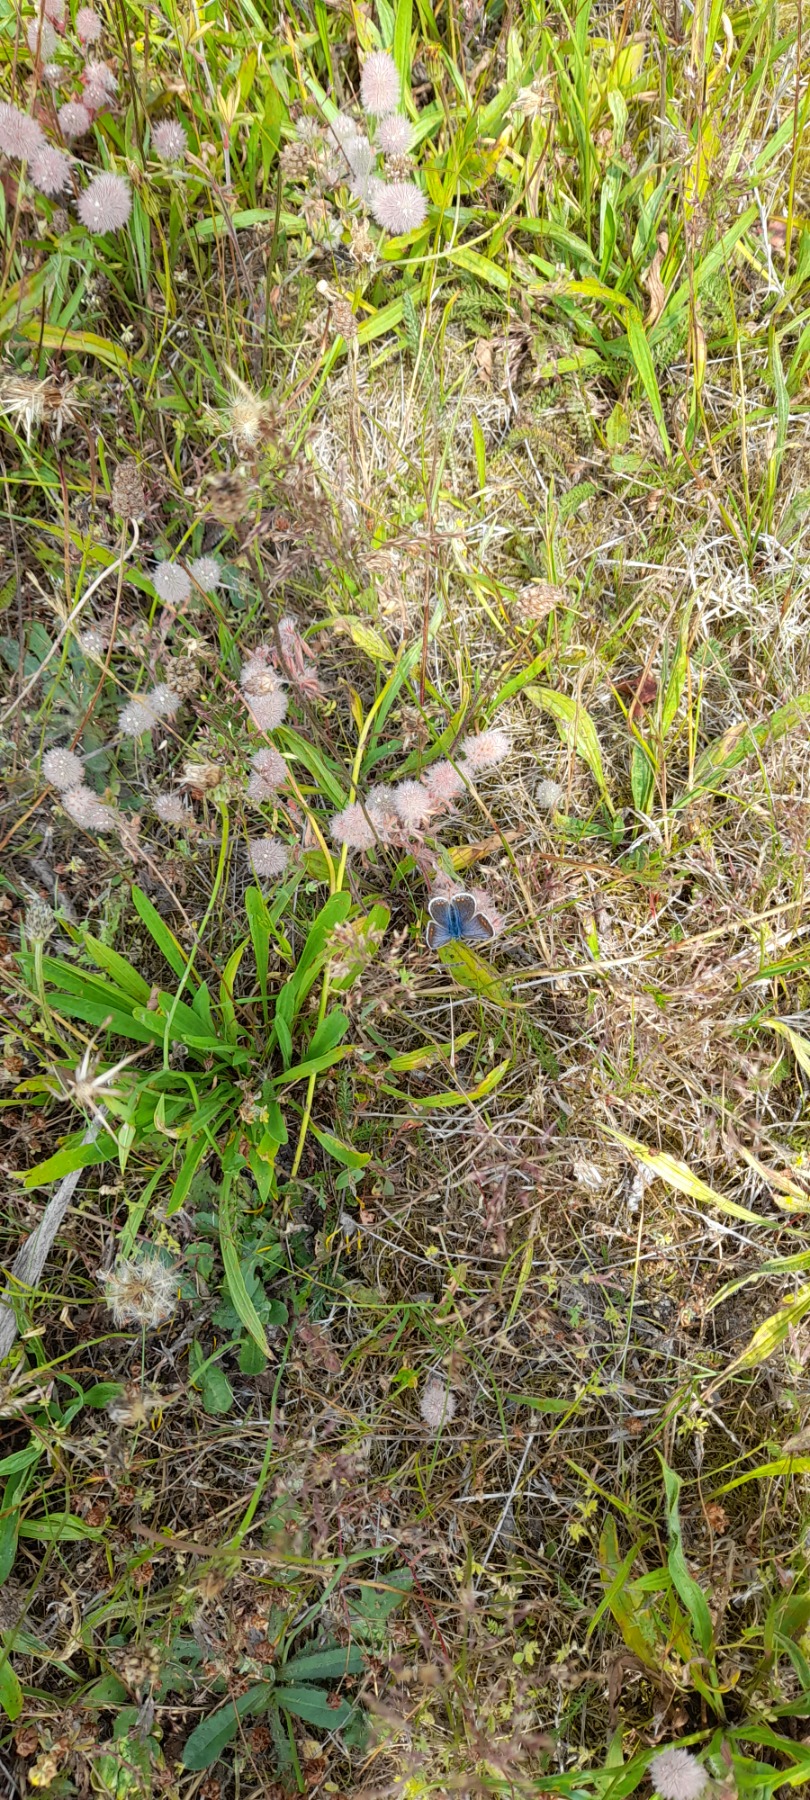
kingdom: Animalia
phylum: Arthropoda
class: Insecta
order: Lepidoptera
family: Lycaenidae
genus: Polyommatus
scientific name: Polyommatus icarus
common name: Almindelig blåfugl
